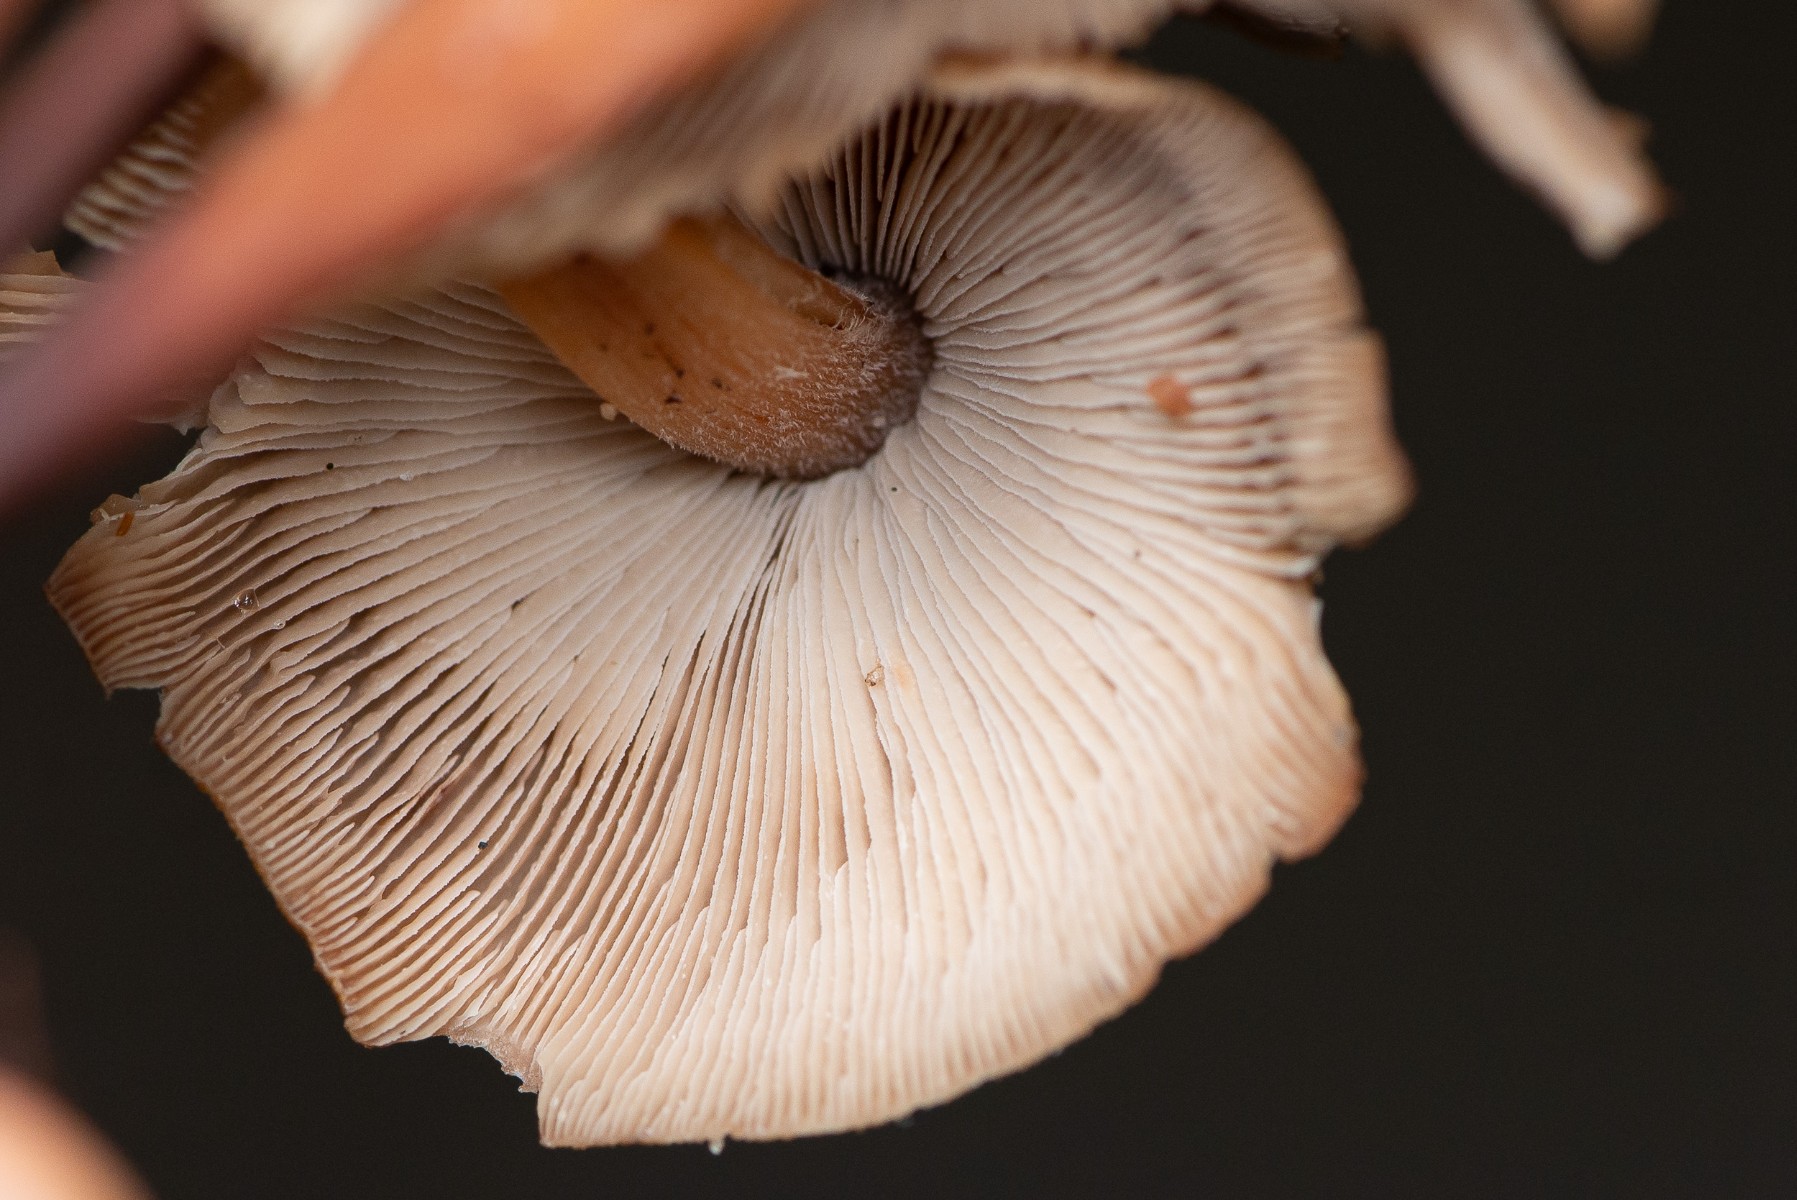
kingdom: Fungi
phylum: Basidiomycota
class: Agaricomycetes
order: Agaricales
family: Omphalotaceae
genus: Collybiopsis
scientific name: Collybiopsis confluens
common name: knippe-fladhat
